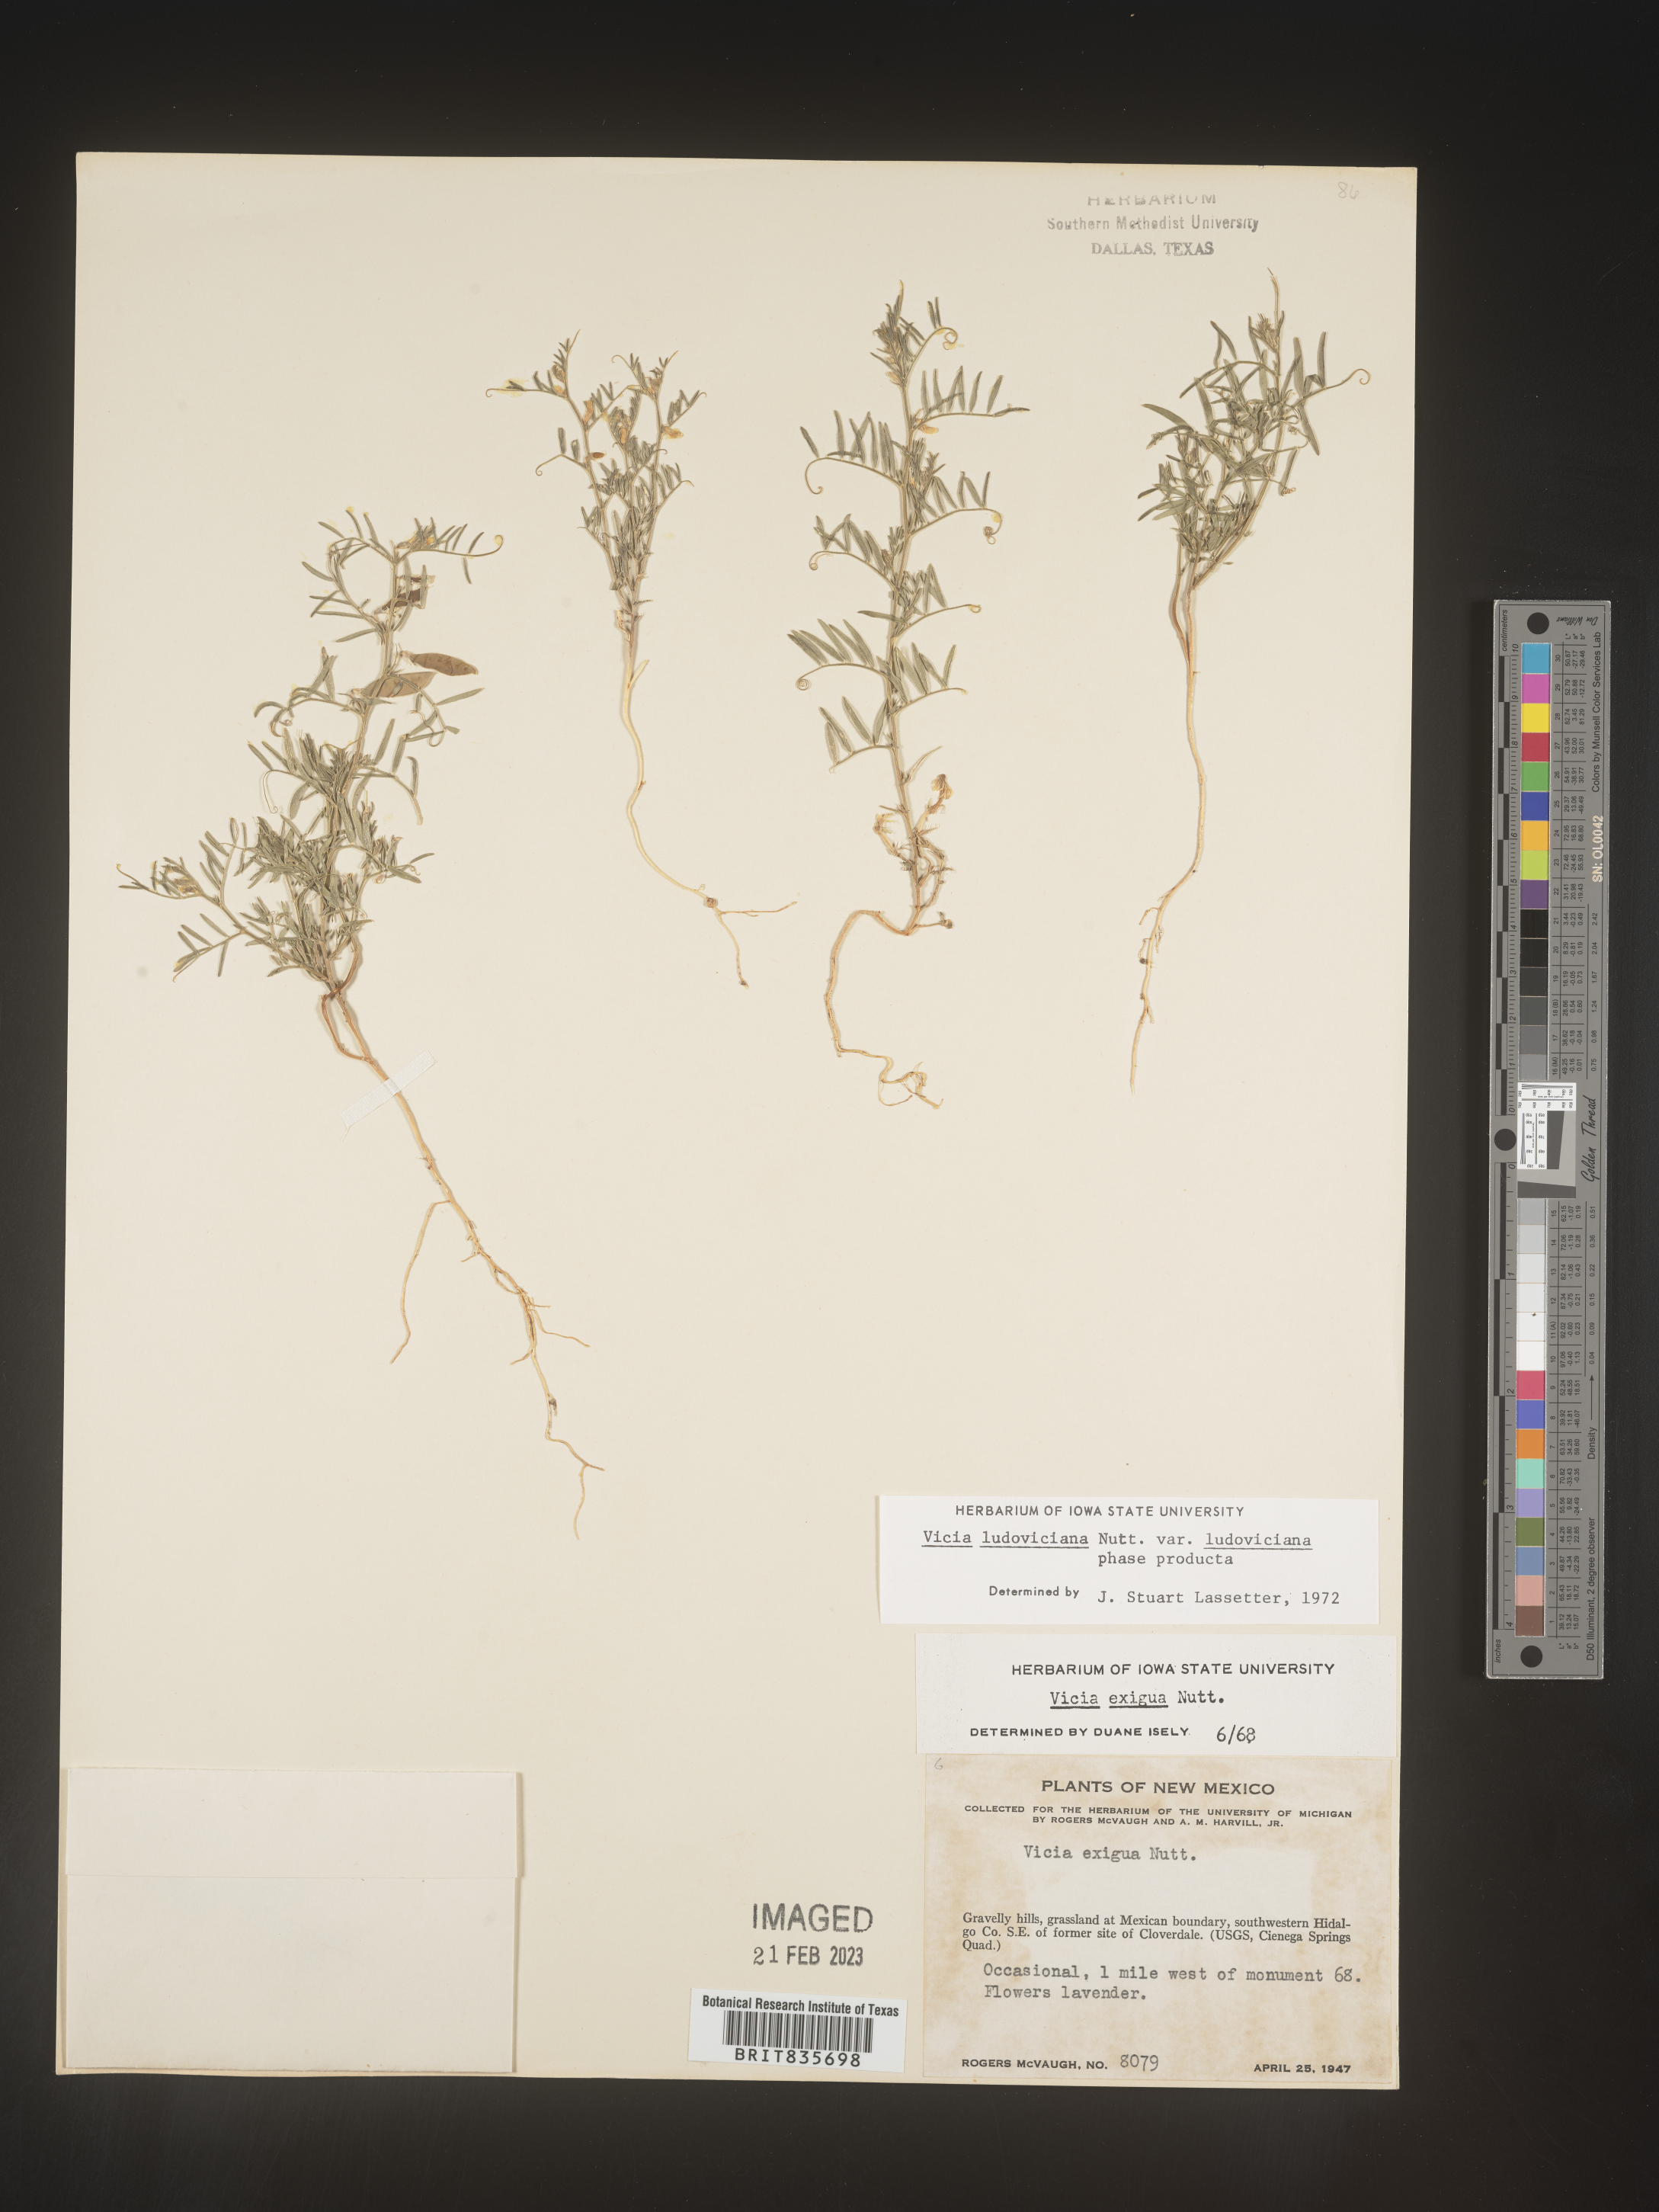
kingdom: Plantae
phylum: Tracheophyta
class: Magnoliopsida
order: Fabales
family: Fabaceae
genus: Vicia
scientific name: Vicia ludoviciana
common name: Louisiana vetch
